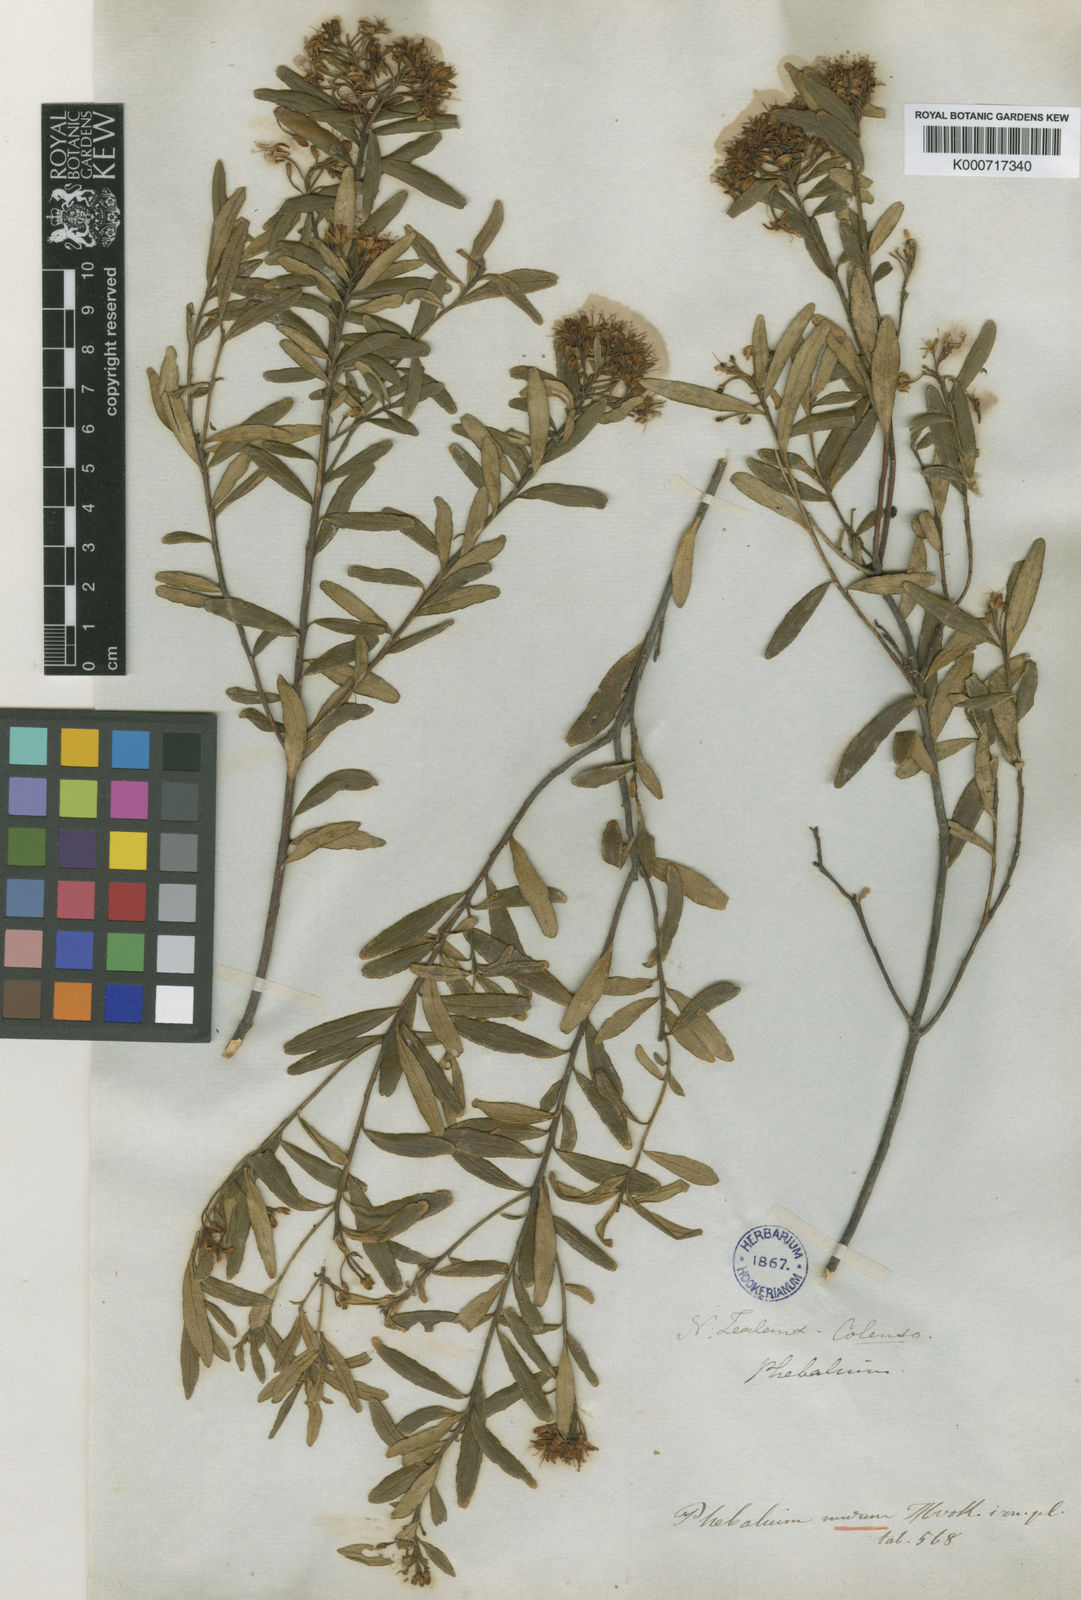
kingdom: Plantae
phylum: Tracheophyta
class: Magnoliopsida
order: Sapindales
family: Rutaceae
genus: Leionema
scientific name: Leionema nudum
